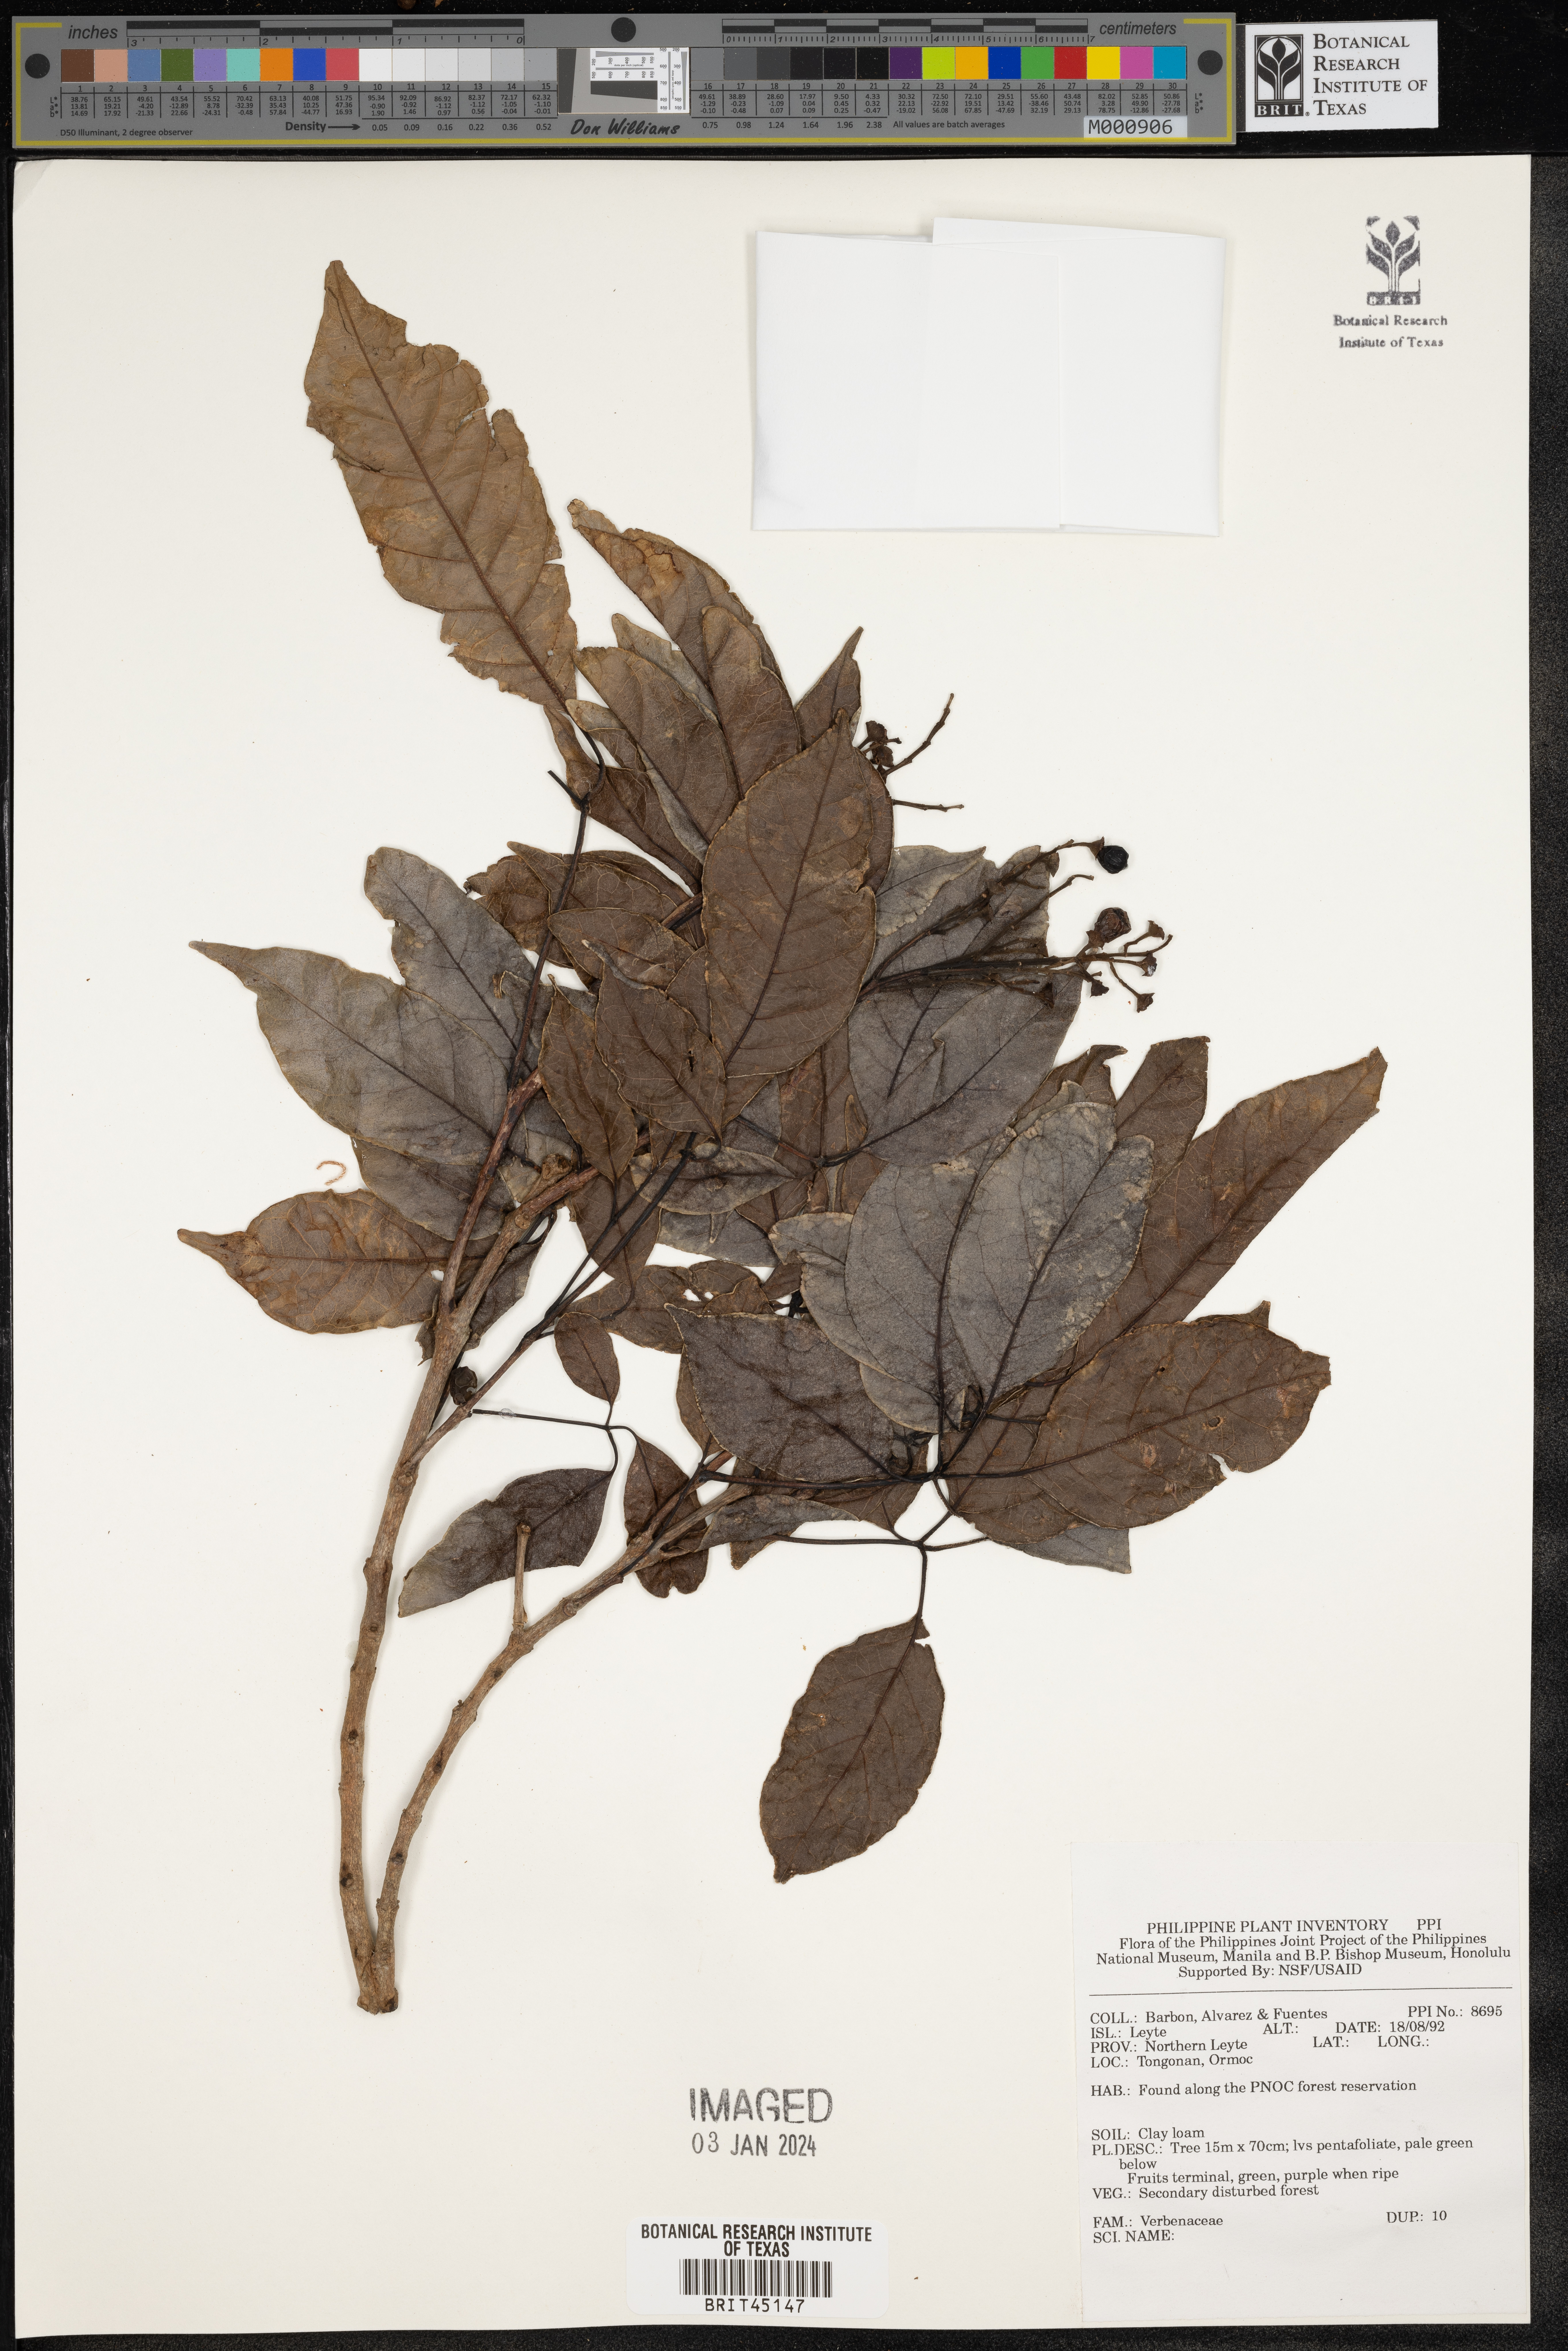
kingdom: Plantae
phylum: Tracheophyta
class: Magnoliopsida
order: Lamiales
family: Verbenaceae
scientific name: Verbenaceae
